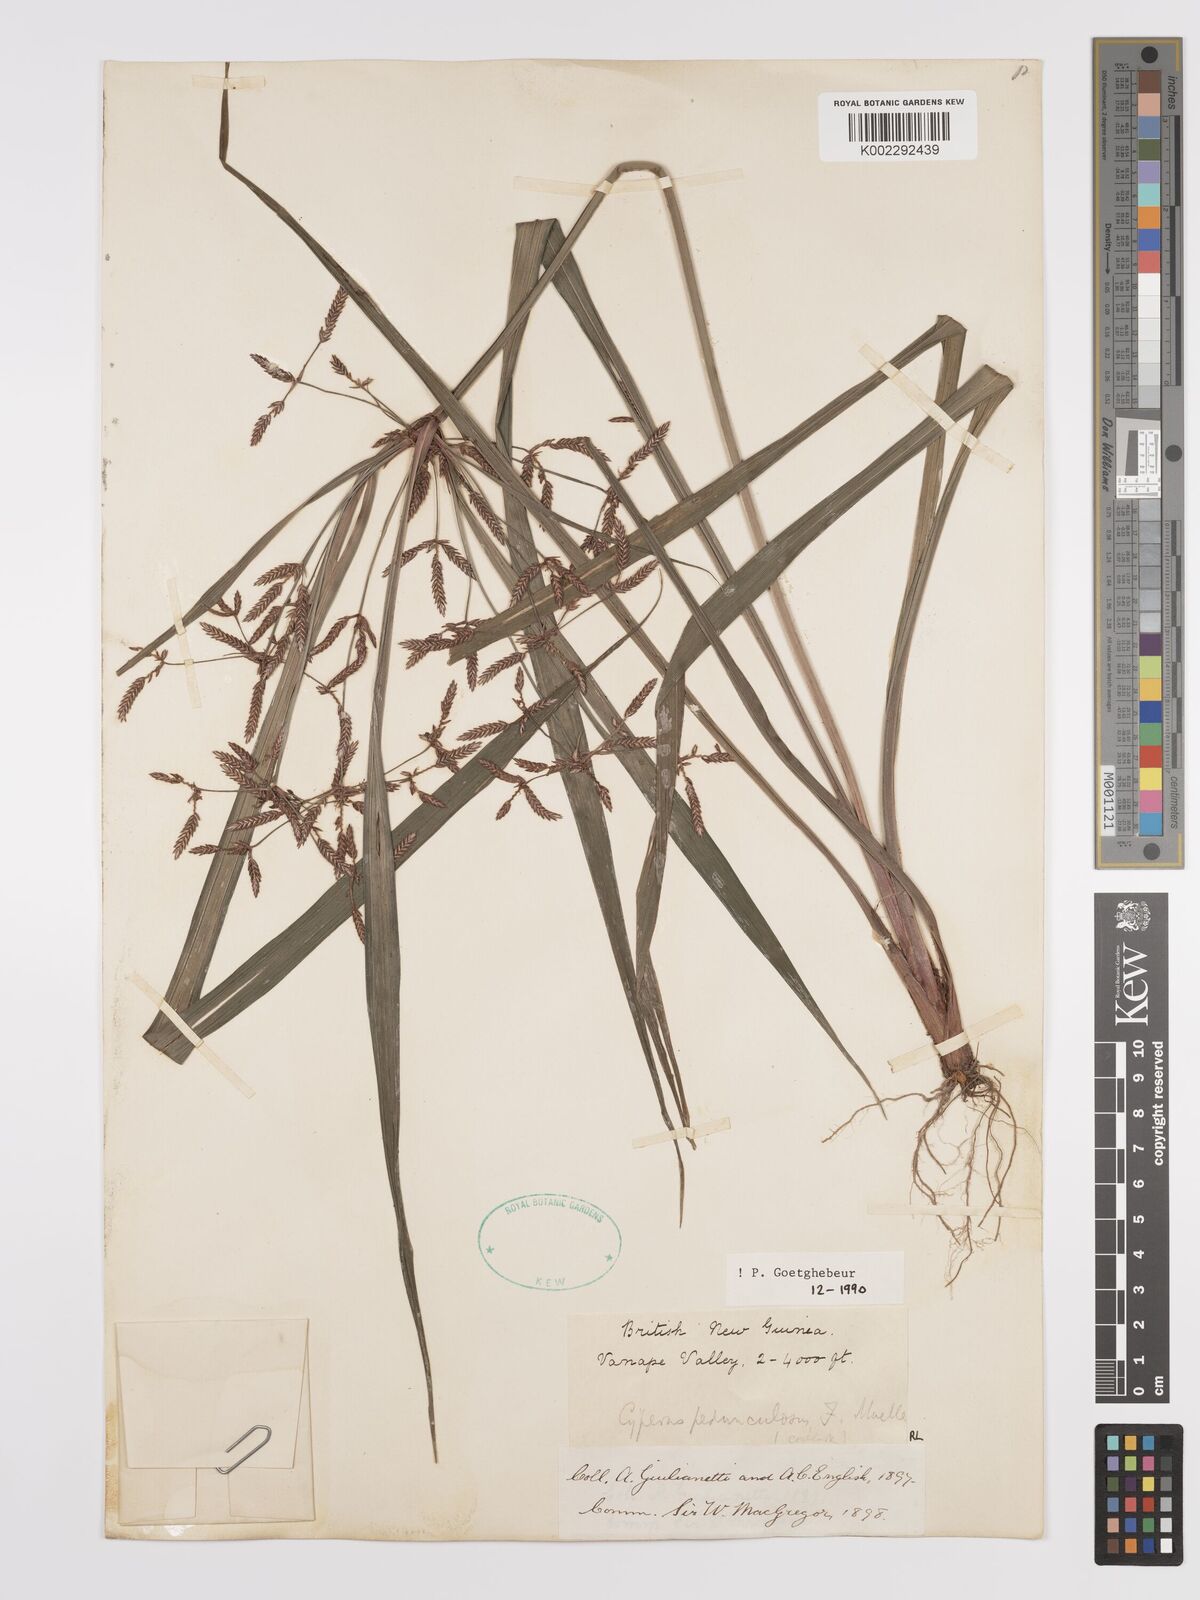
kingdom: Plantae
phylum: Tracheophyta
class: Liliopsida
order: Poales
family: Cyperaceae
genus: Cyperus
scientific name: Cyperus pedunculosus
